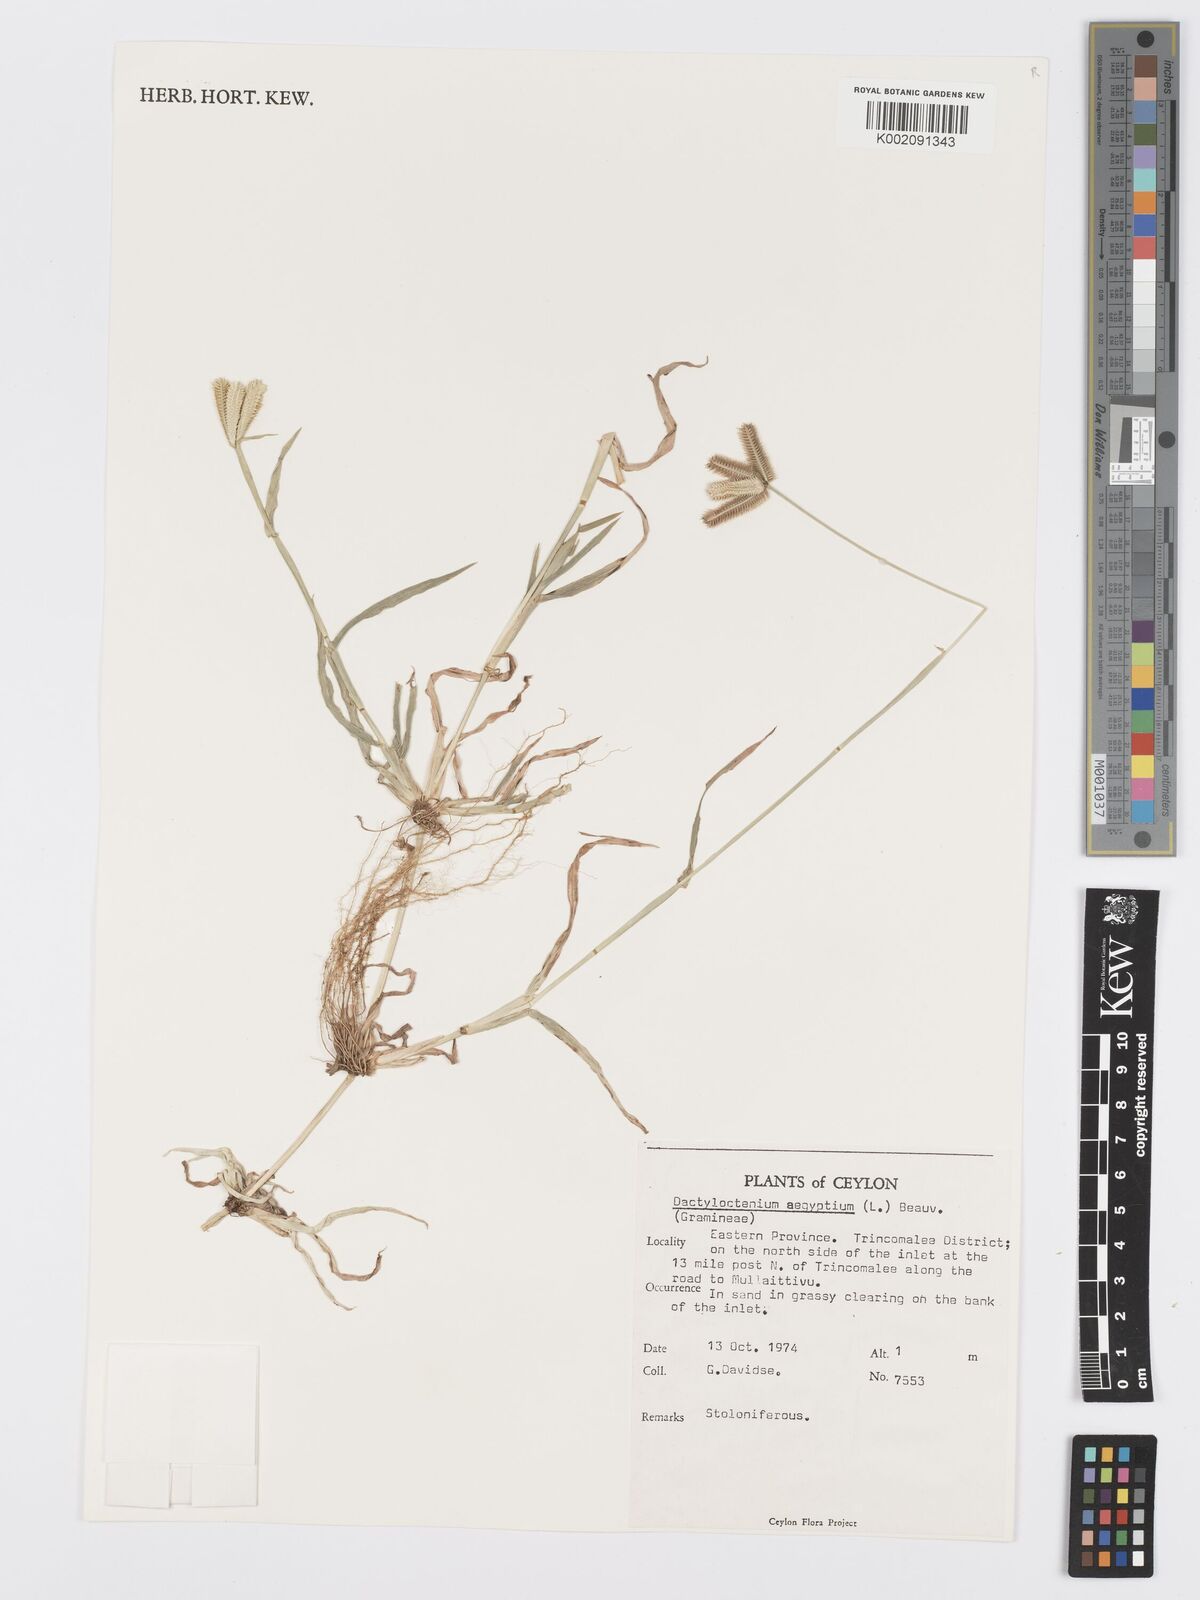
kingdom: Plantae
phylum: Tracheophyta
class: Liliopsida
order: Poales
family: Poaceae
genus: Dactyloctenium
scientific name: Dactyloctenium aegyptium
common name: Egyptian grass
